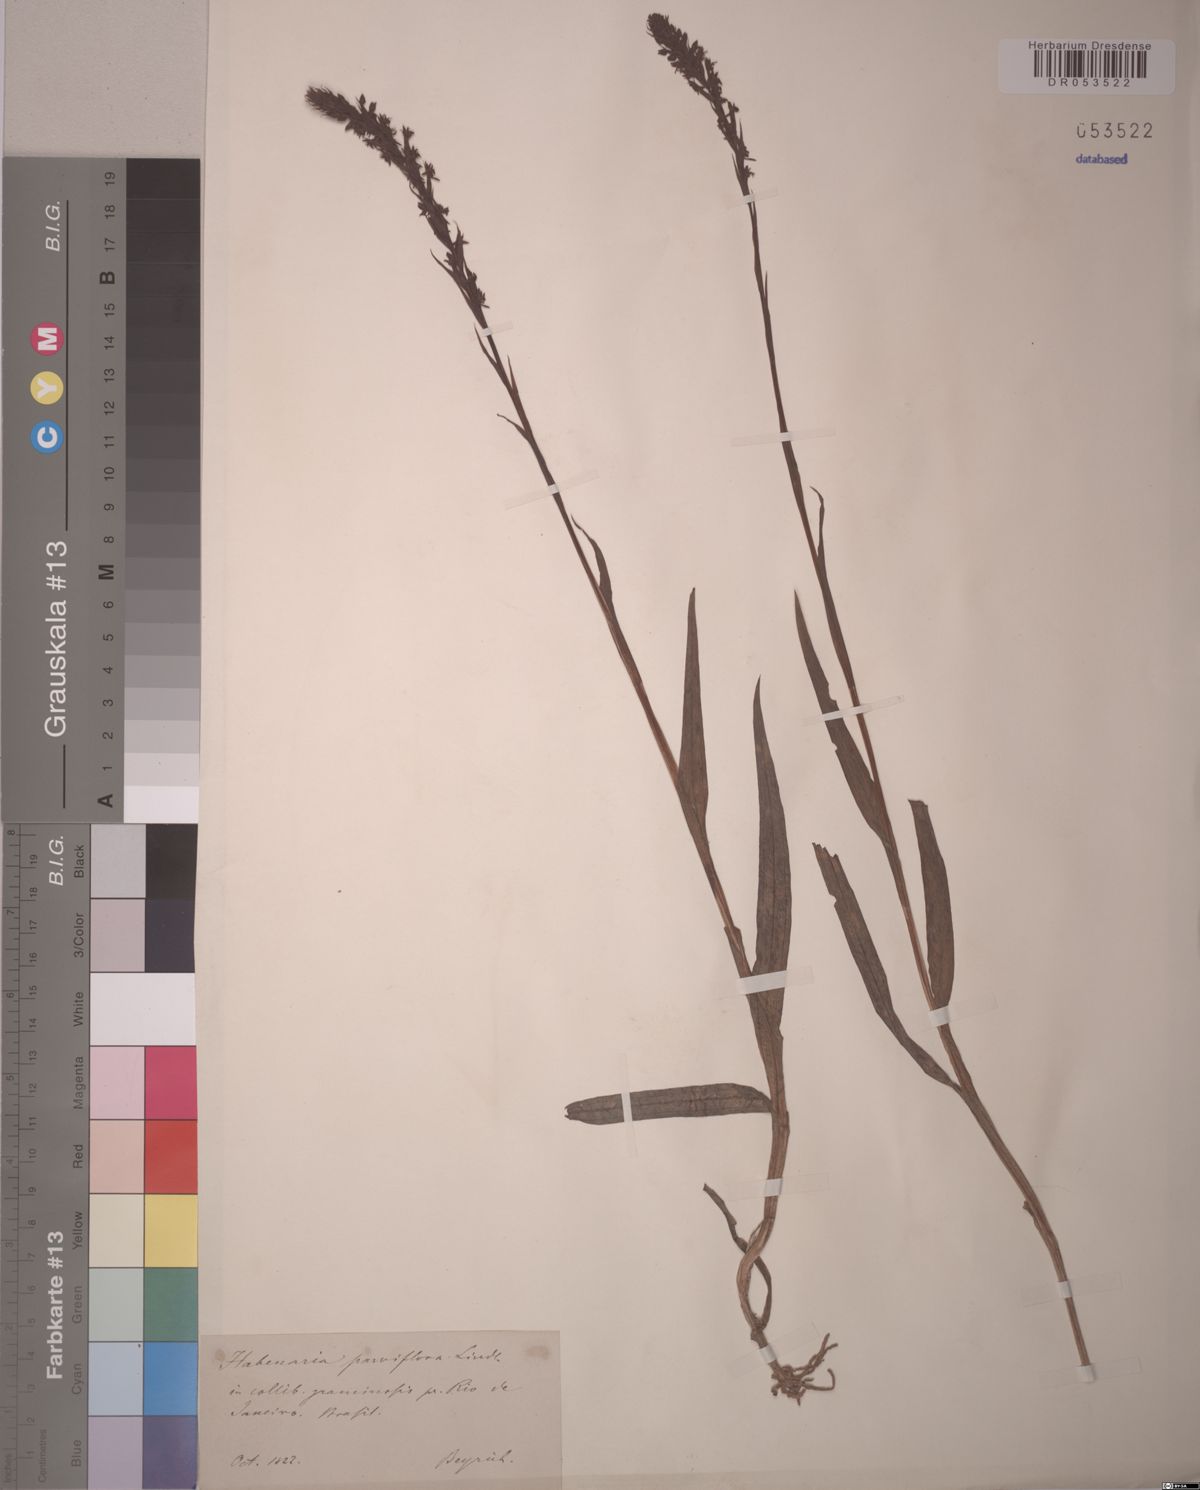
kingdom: Plantae
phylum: Tracheophyta
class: Liliopsida
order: Asparagales
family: Orchidaceae
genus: Habenaria
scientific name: Habenaria parviflora
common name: Small flowered habenaria
